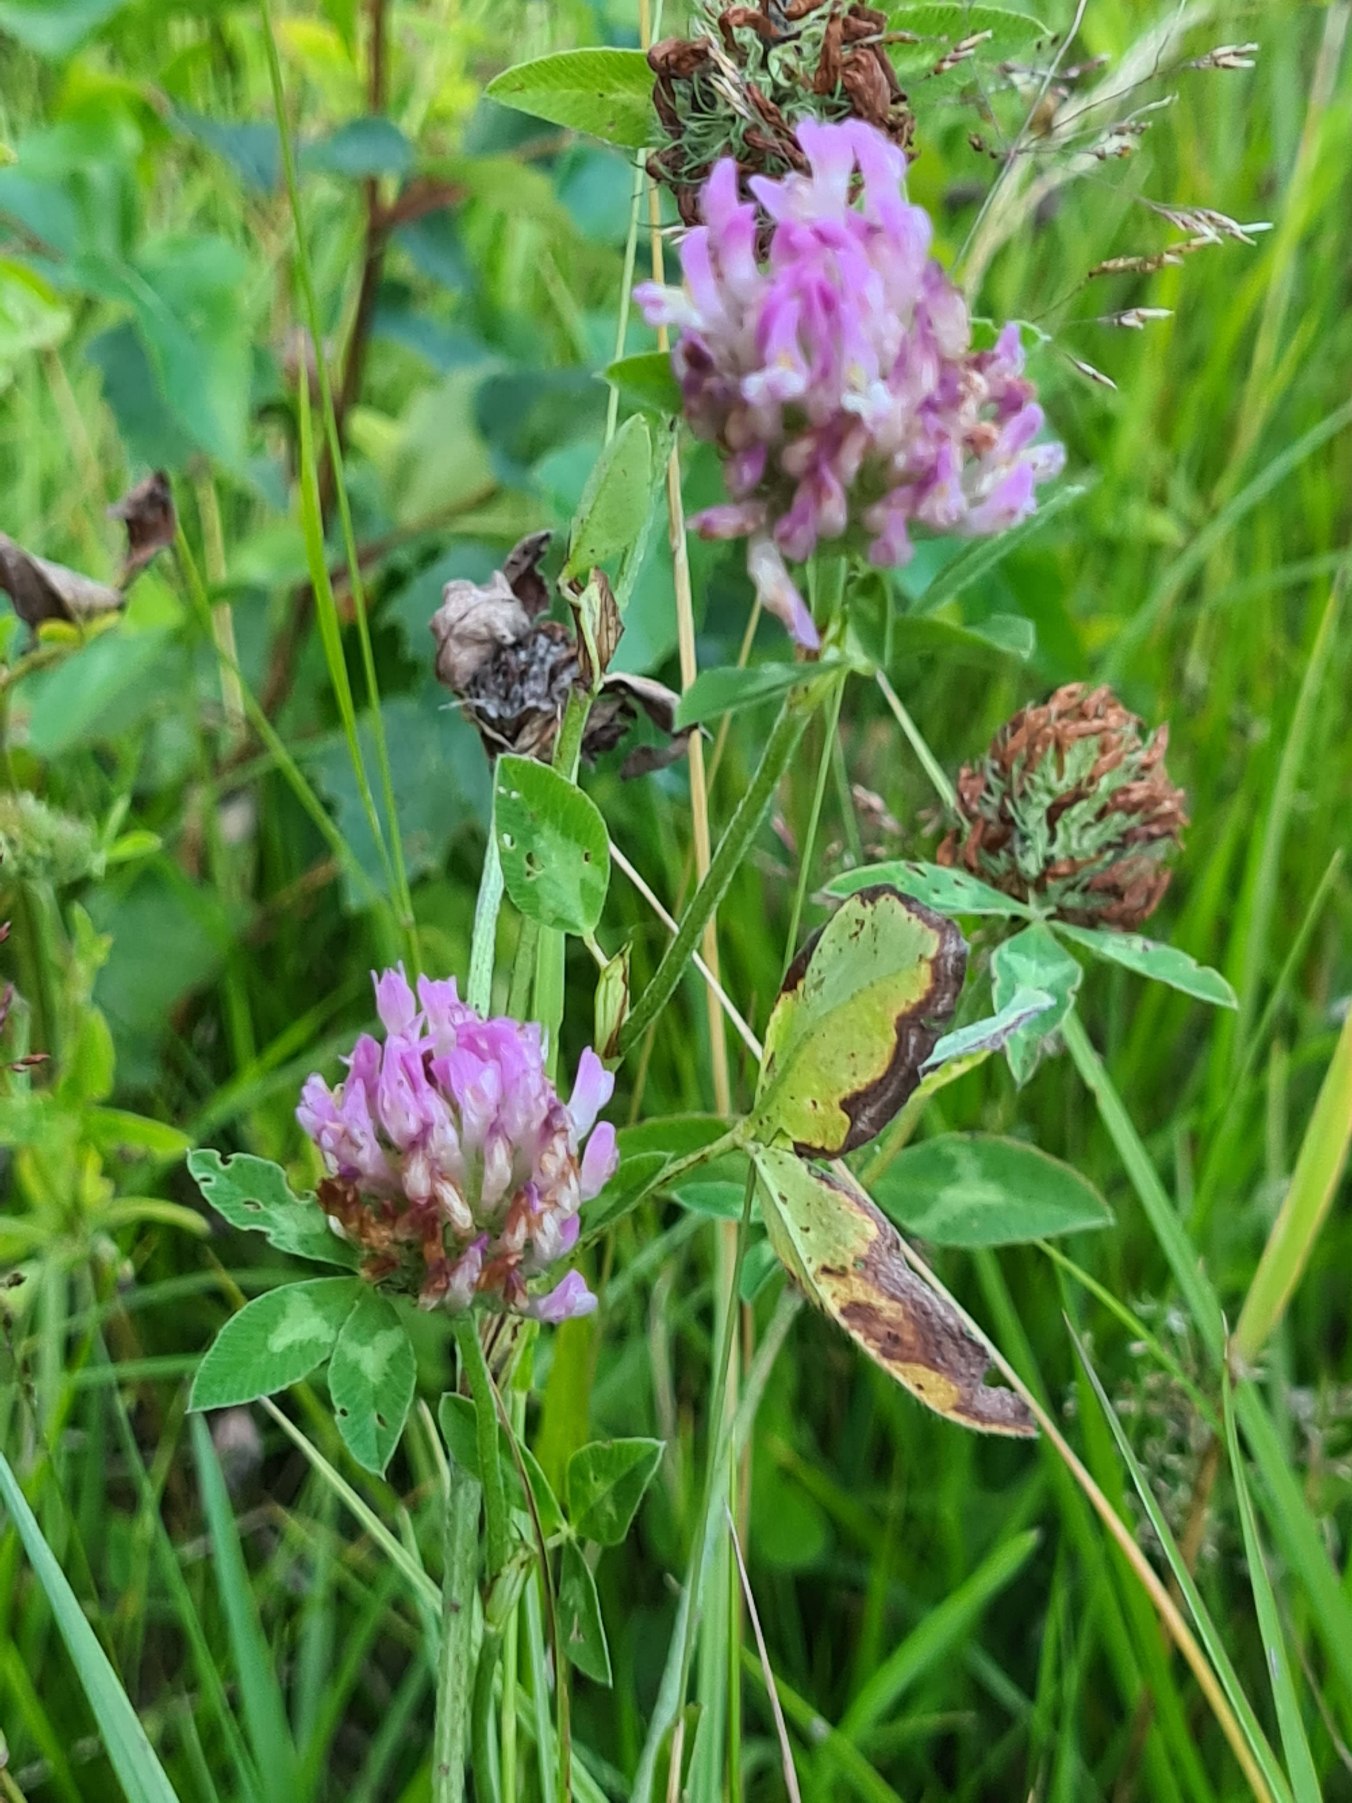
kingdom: Plantae
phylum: Tracheophyta
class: Magnoliopsida
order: Fabales
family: Fabaceae
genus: Trifolium
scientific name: Trifolium pratense
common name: Rød-kløver
